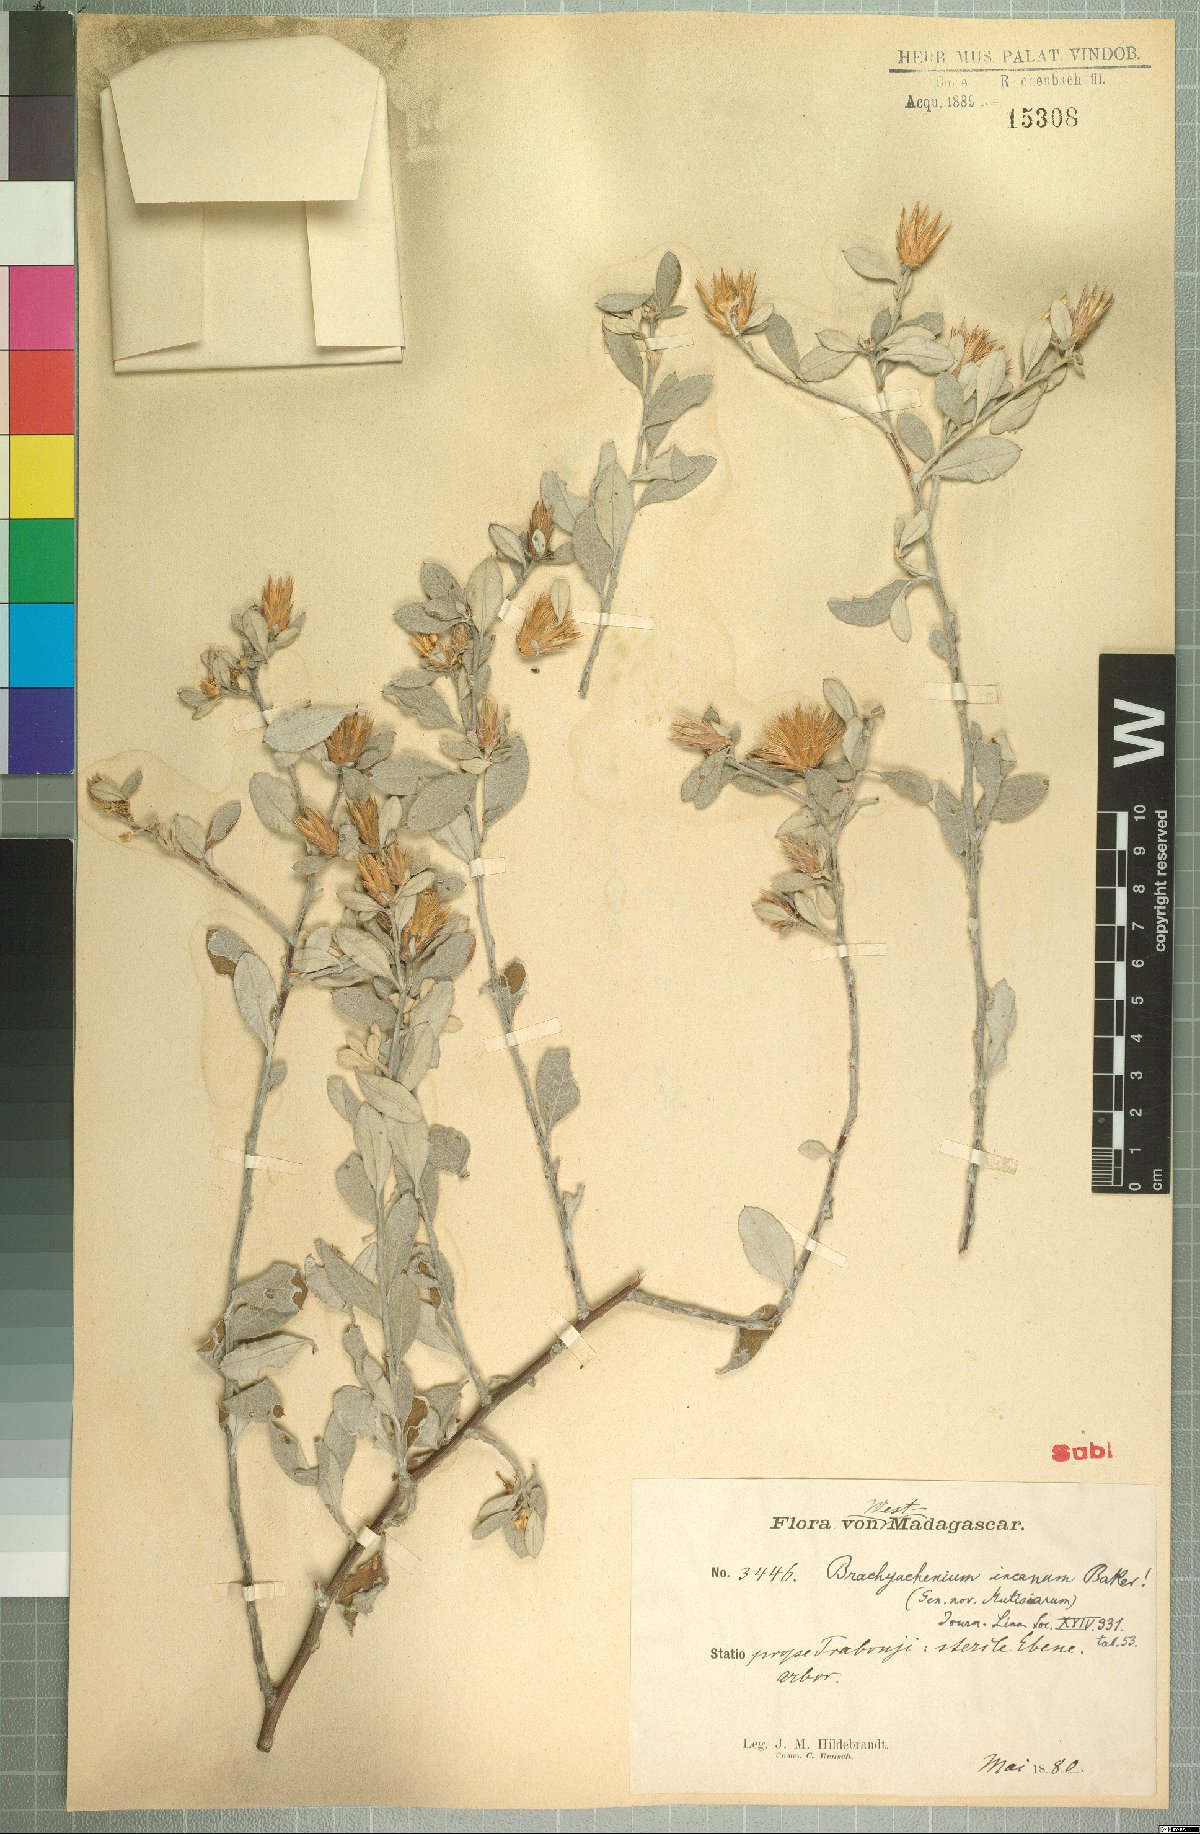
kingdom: Plantae
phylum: Tracheophyta
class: Magnoliopsida
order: Asterales
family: Asteraceae
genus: Dicoma
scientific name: Dicoma incana
